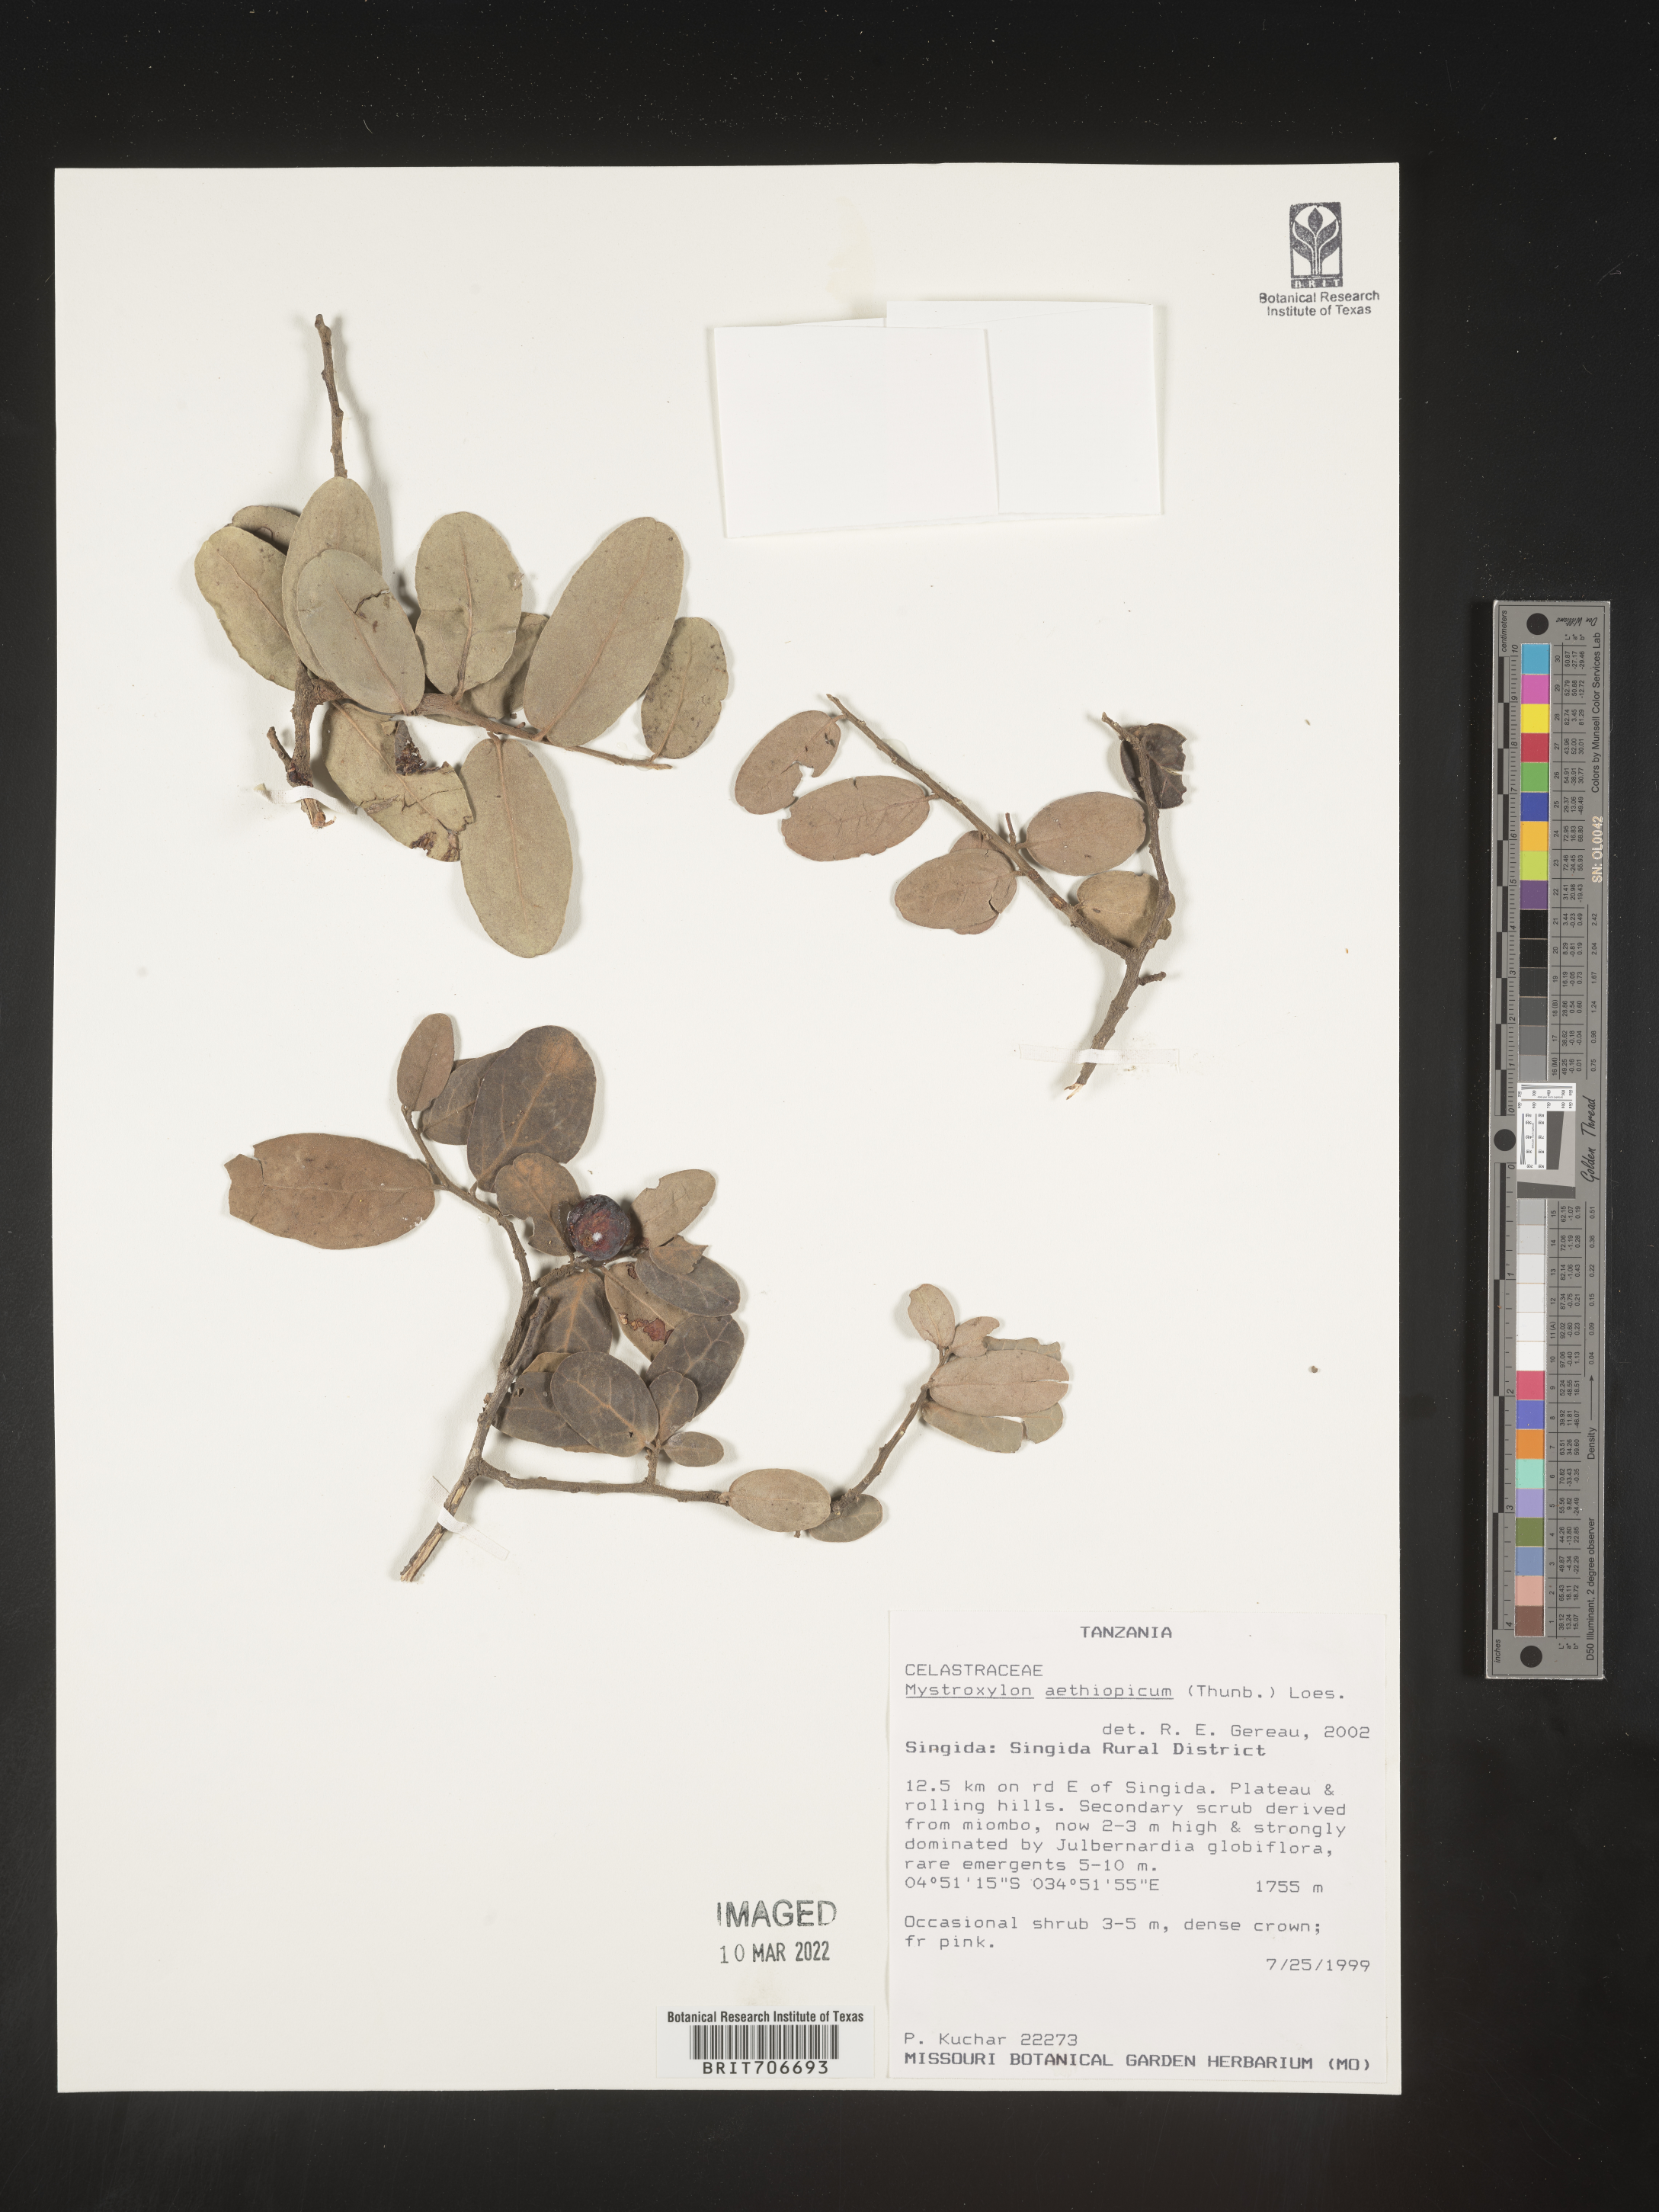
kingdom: Plantae
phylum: Tracheophyta
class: Magnoliopsida
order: Celastrales
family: Celastraceae
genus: Mystroxylon
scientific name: Mystroxylon
